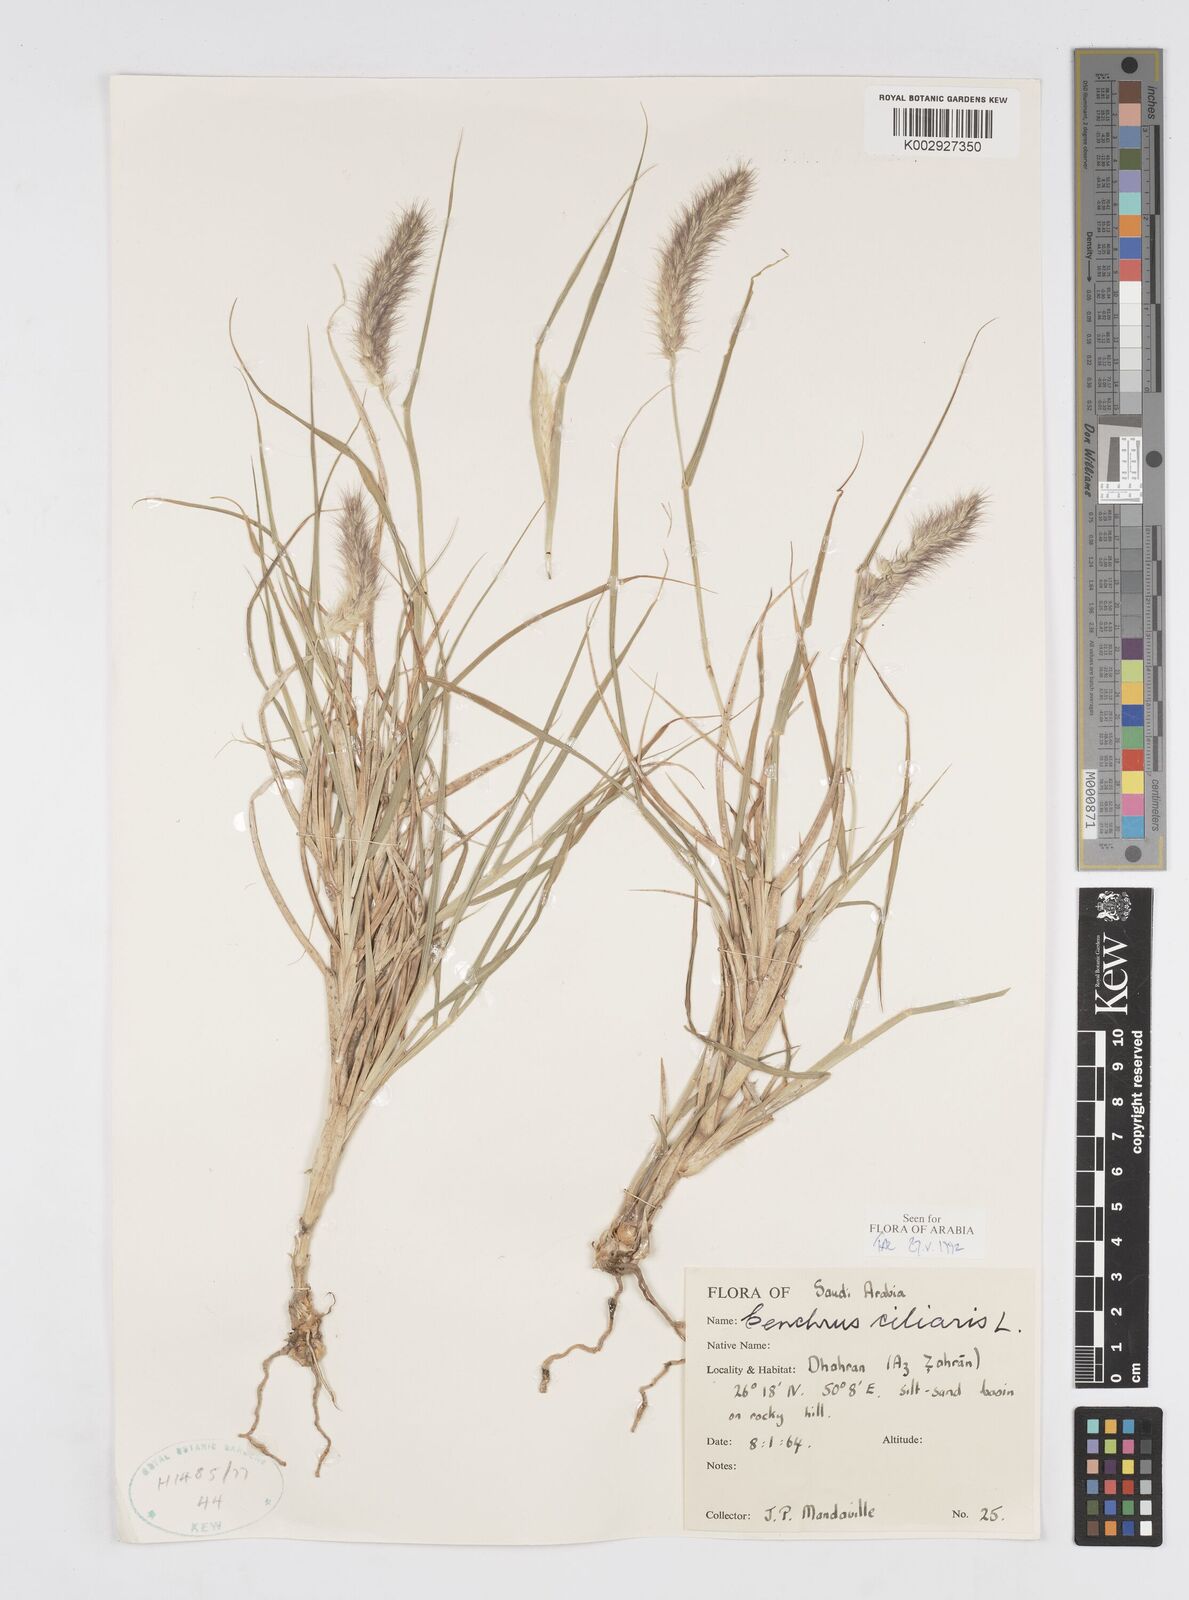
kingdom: Plantae
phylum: Tracheophyta
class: Liliopsida
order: Poales
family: Poaceae
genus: Cenchrus
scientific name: Cenchrus ciliaris
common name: Buffelgrass
